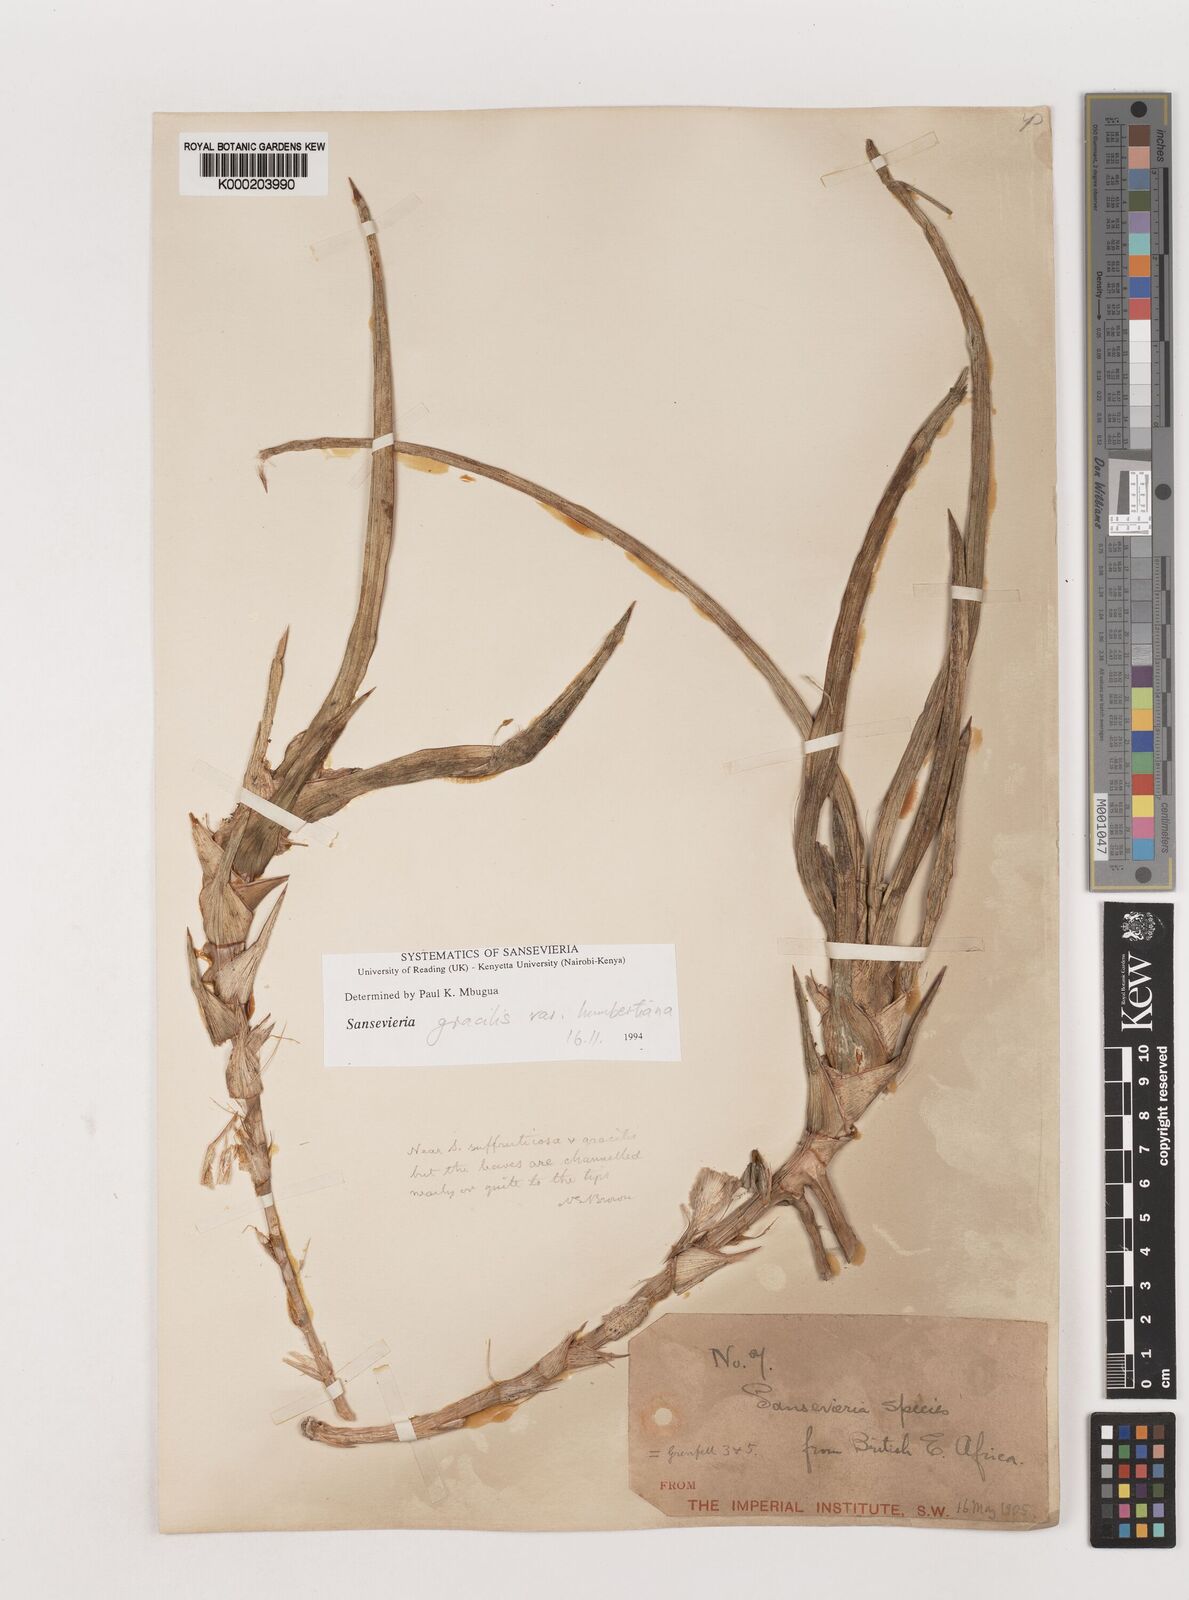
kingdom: Plantae
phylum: Tracheophyta
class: Liliopsida
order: Asparagales
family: Asparagaceae
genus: Dracaena
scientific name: Dracaena
